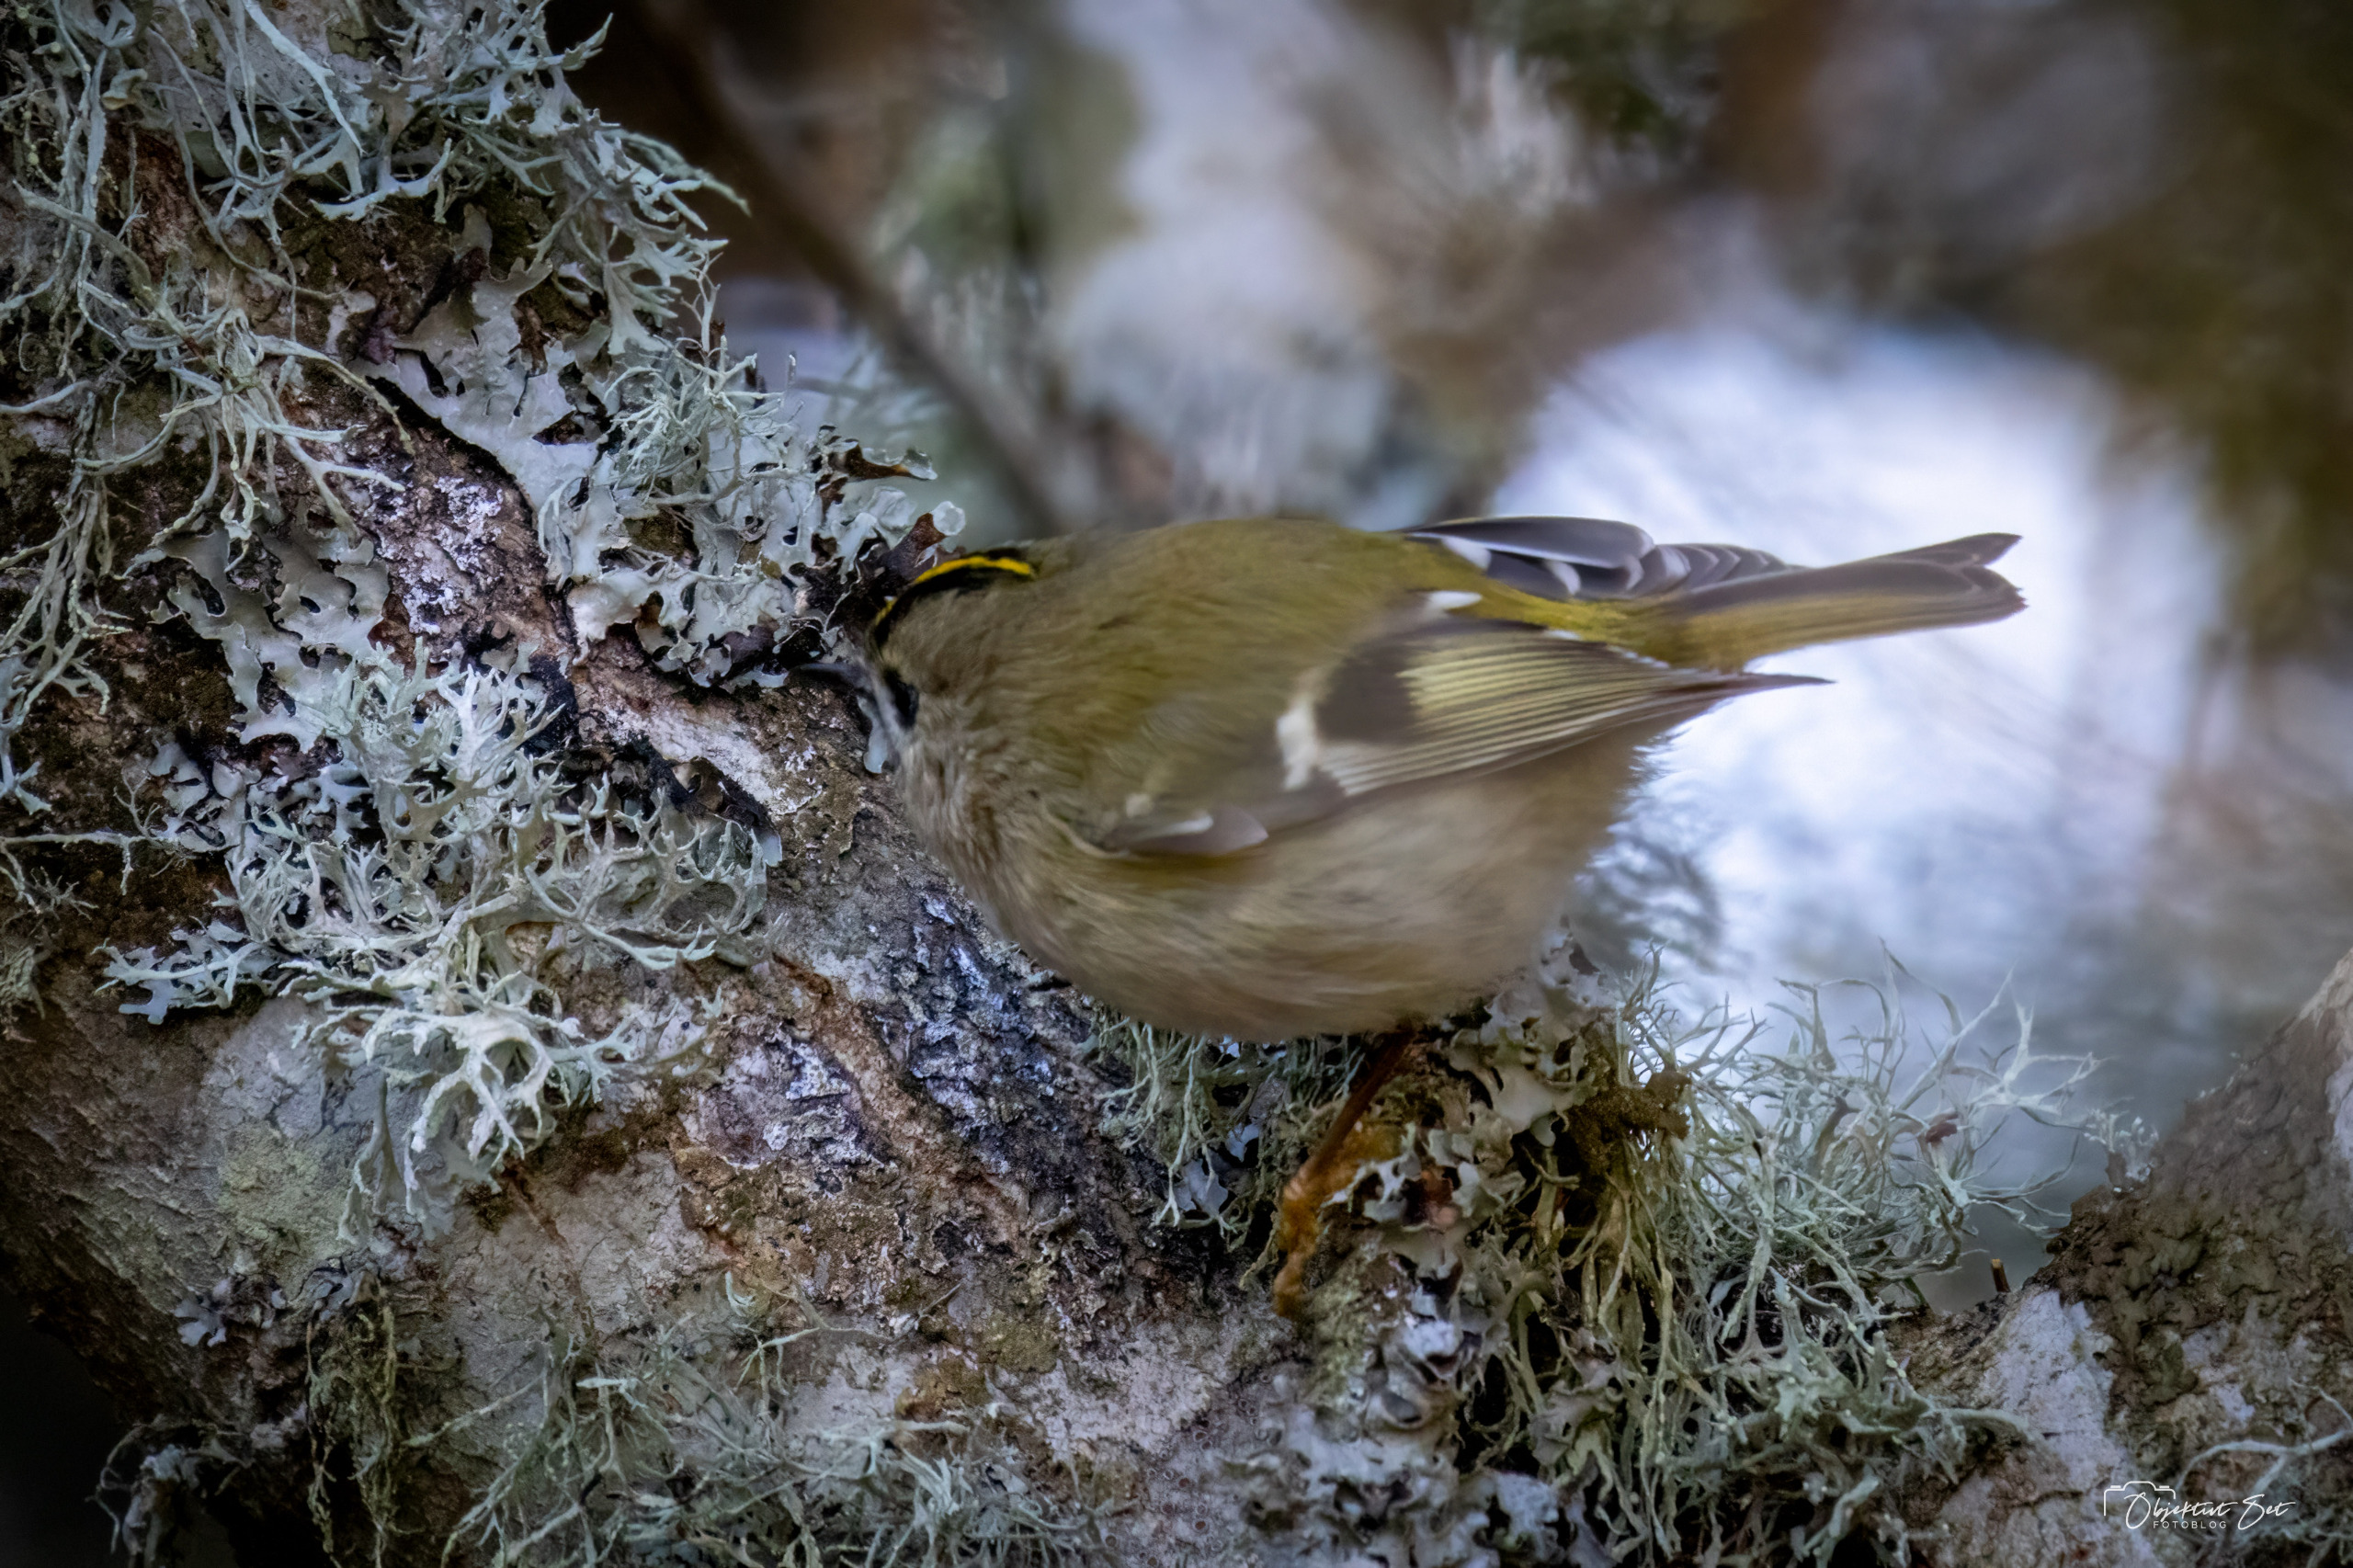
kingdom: Animalia
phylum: Chordata
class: Aves
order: Passeriformes
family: Regulidae
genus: Regulus
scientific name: Regulus regulus
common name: Fuglekonge
